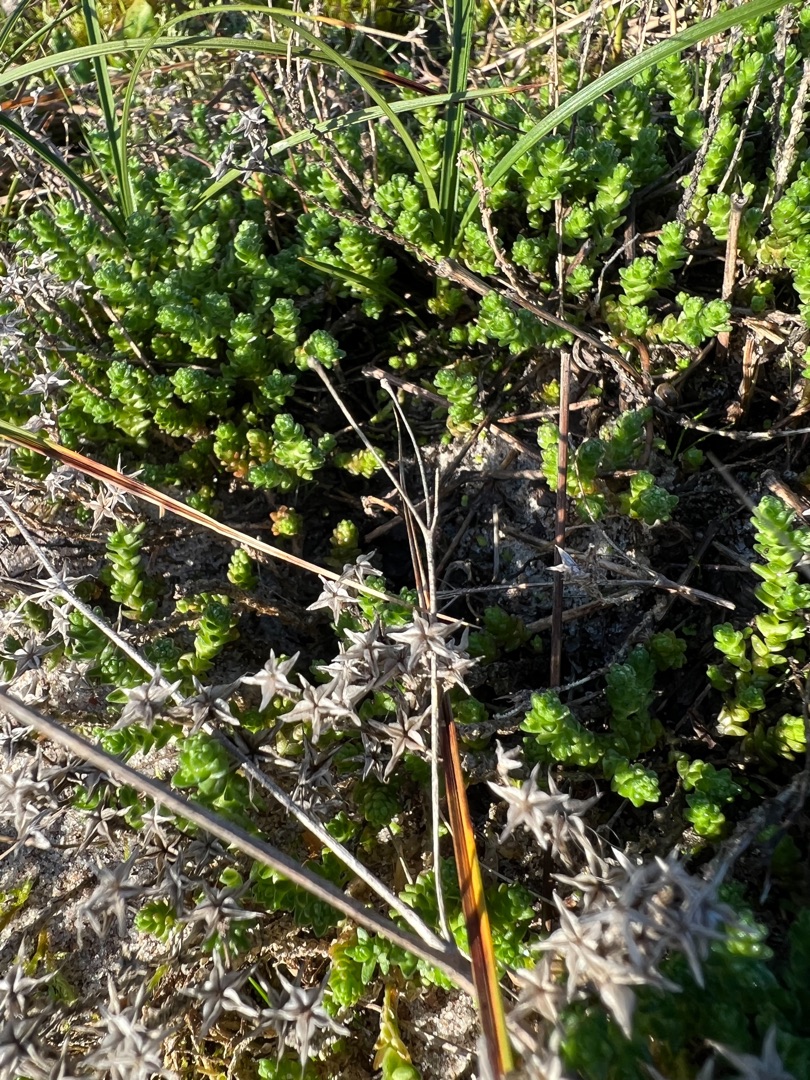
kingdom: Plantae
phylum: Tracheophyta
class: Magnoliopsida
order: Saxifragales
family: Crassulaceae
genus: Sedum
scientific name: Sedum acre
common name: Bidende stenurt
